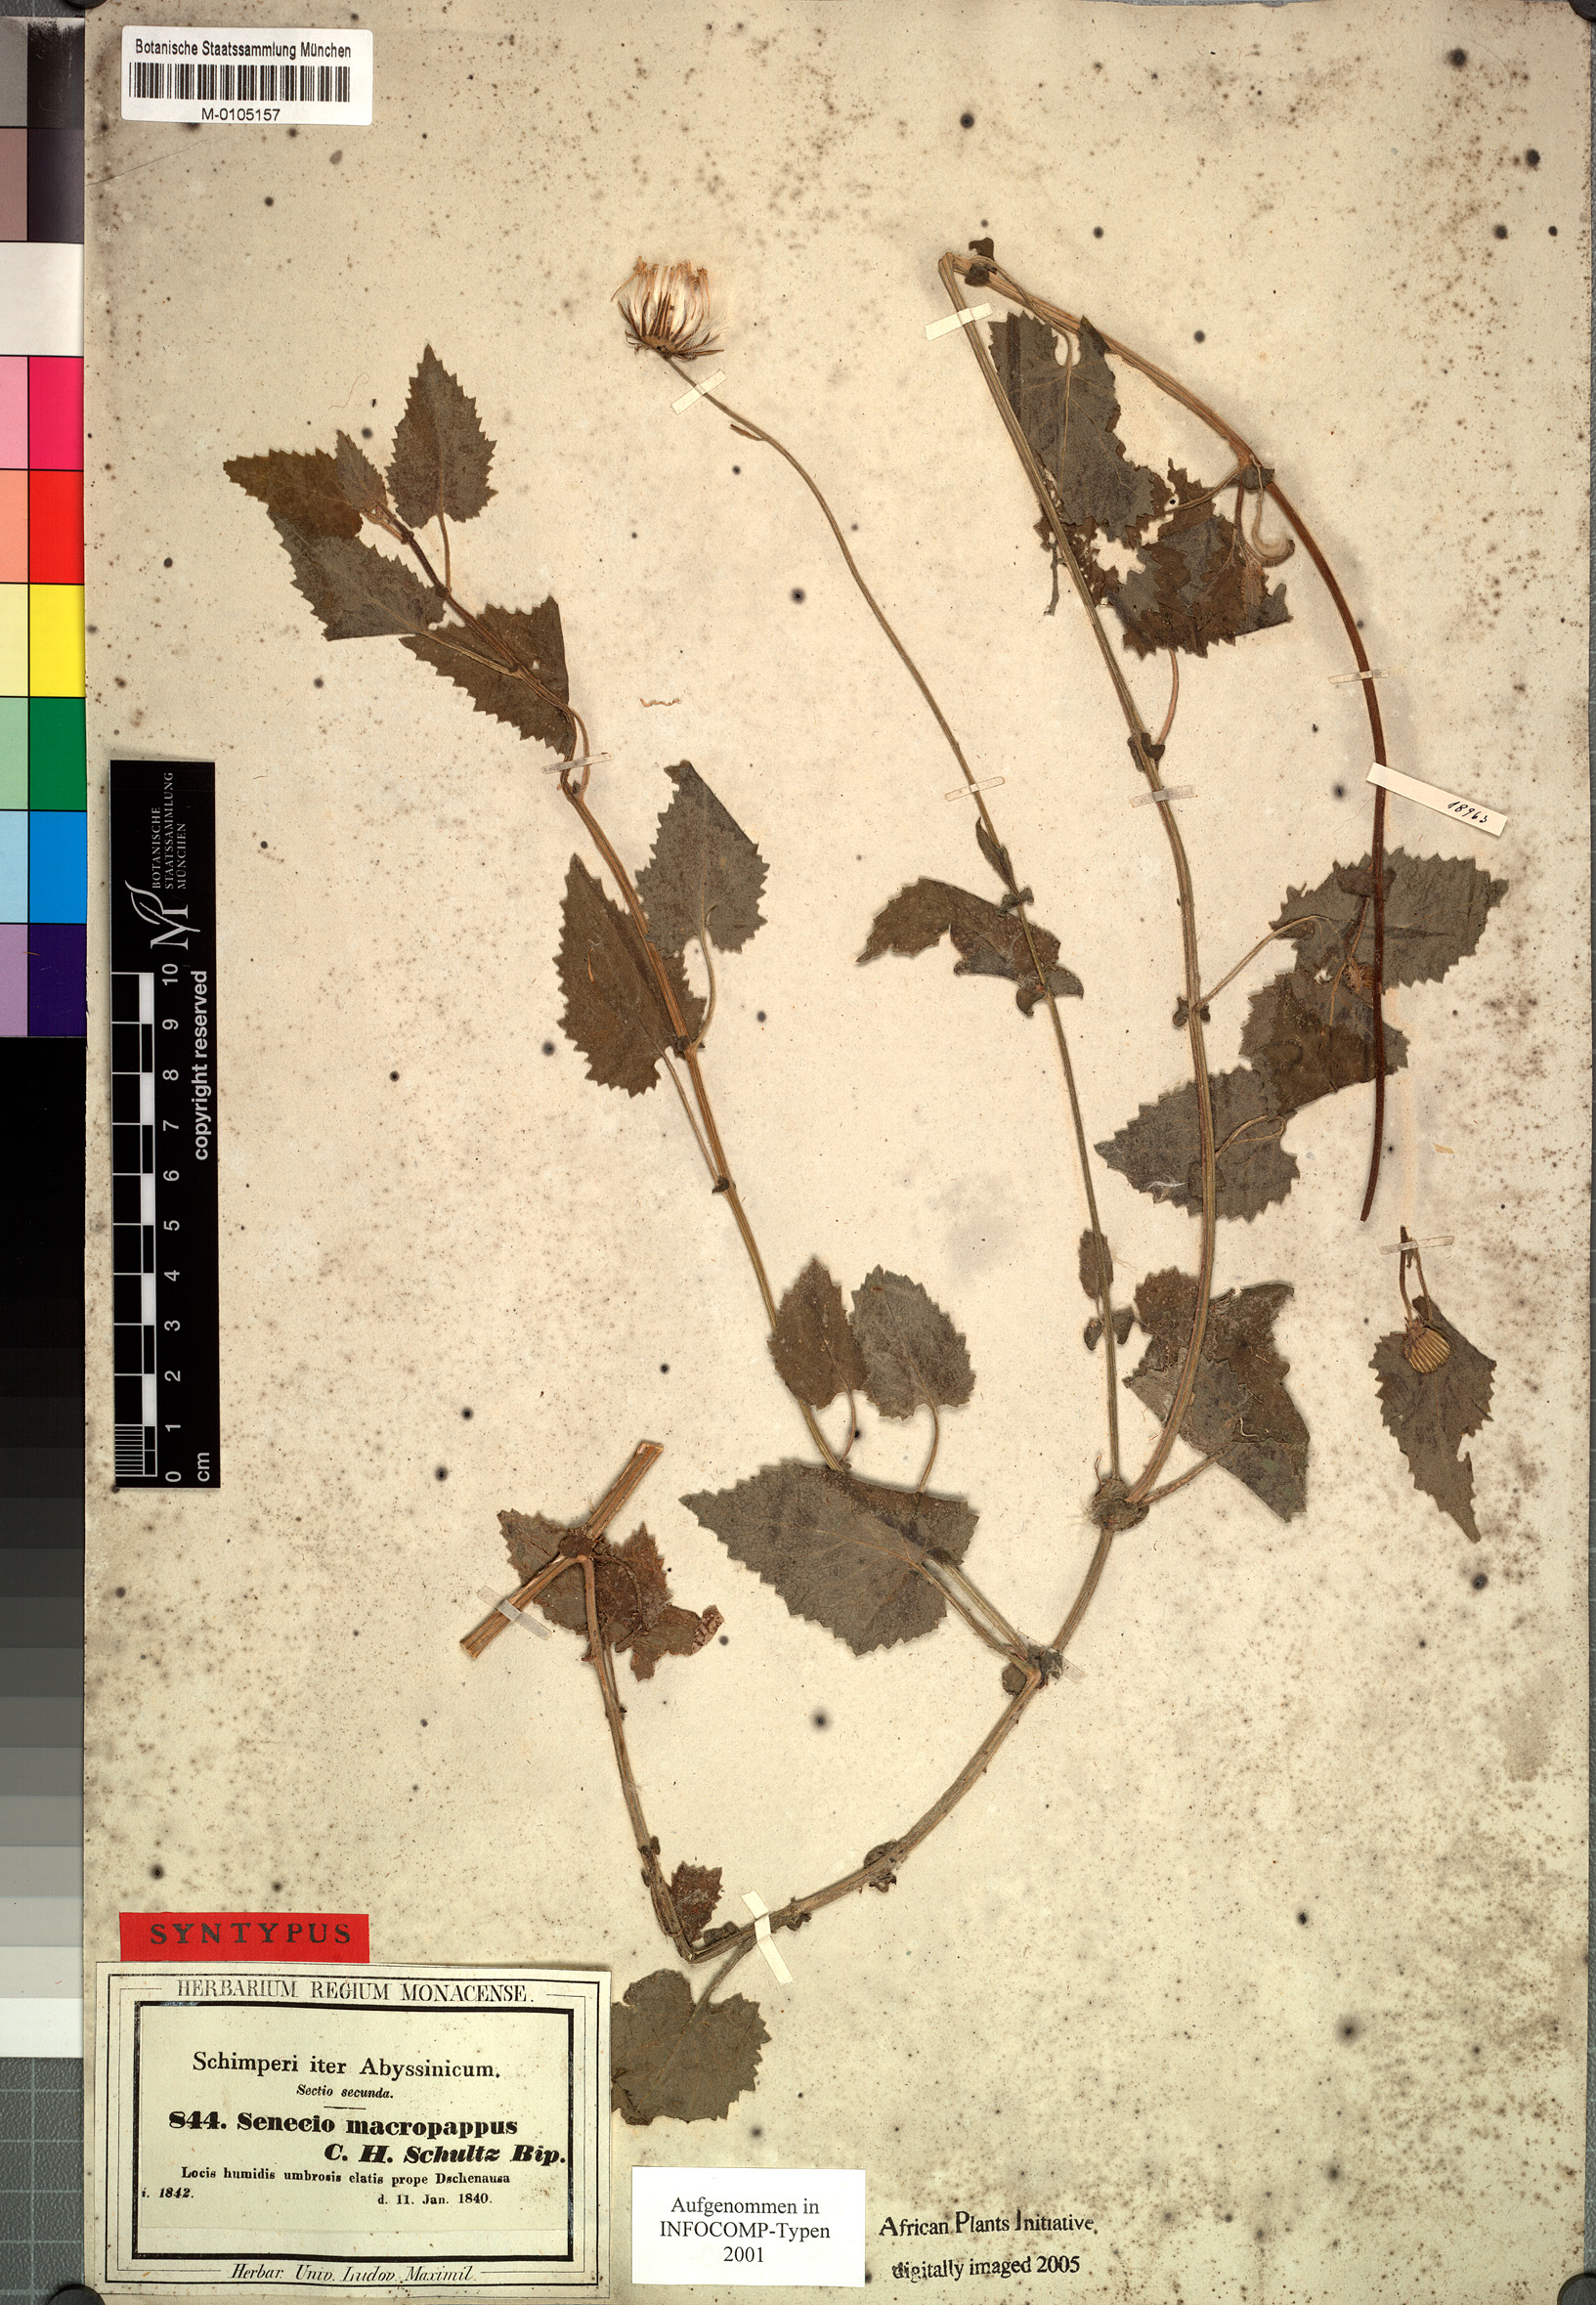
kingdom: Plantae
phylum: Tracheophyta
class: Magnoliopsida
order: Asterales
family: Asteraceae
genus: Crassocephalum
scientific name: Crassocephalum macropappus
